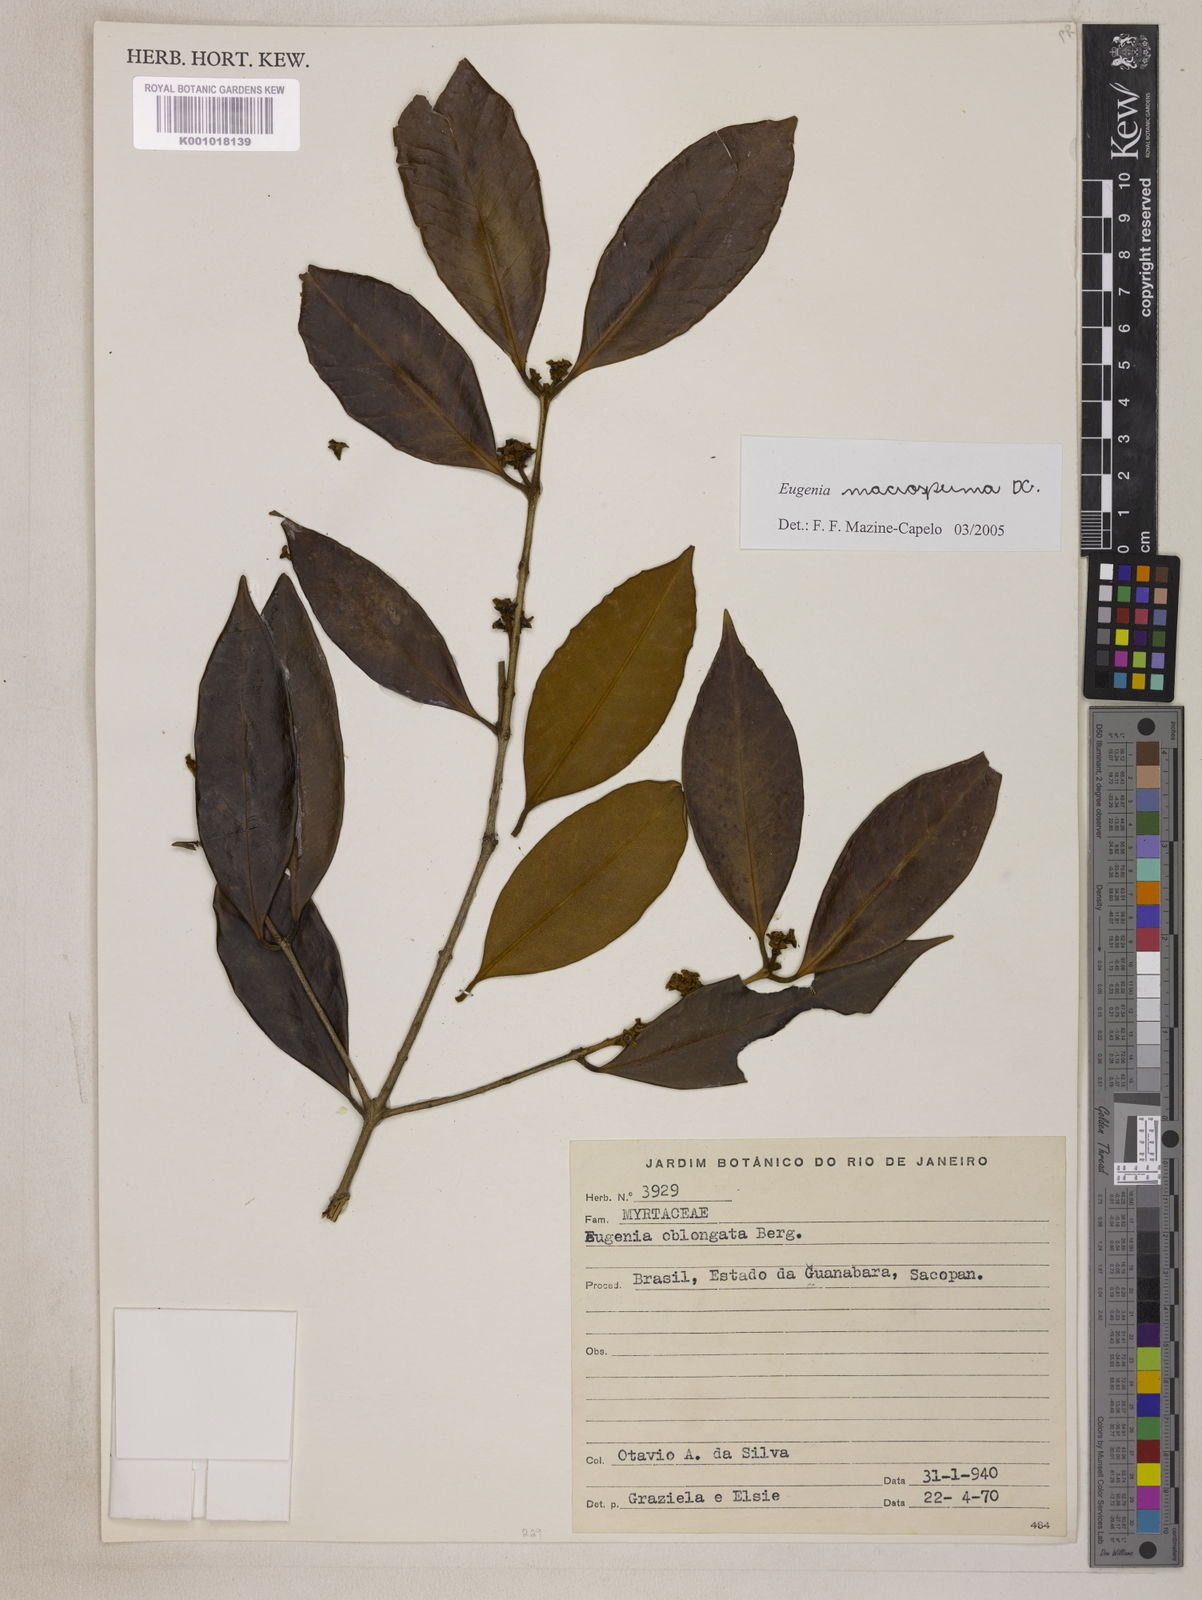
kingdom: Plantae
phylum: Tracheophyta
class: Magnoliopsida
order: Myrtales
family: Myrtaceae
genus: Eugenia
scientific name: Eugenia macrosperma
